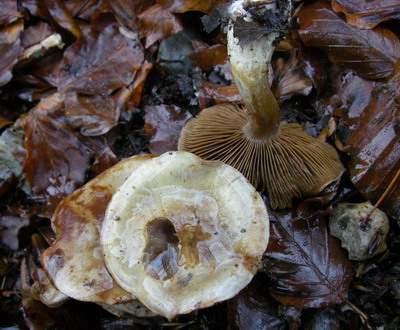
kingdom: Fungi
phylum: Basidiomycota
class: Agaricomycetes
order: Agaricales
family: Cortinariaceae
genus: Cortinarius
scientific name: Cortinarius
